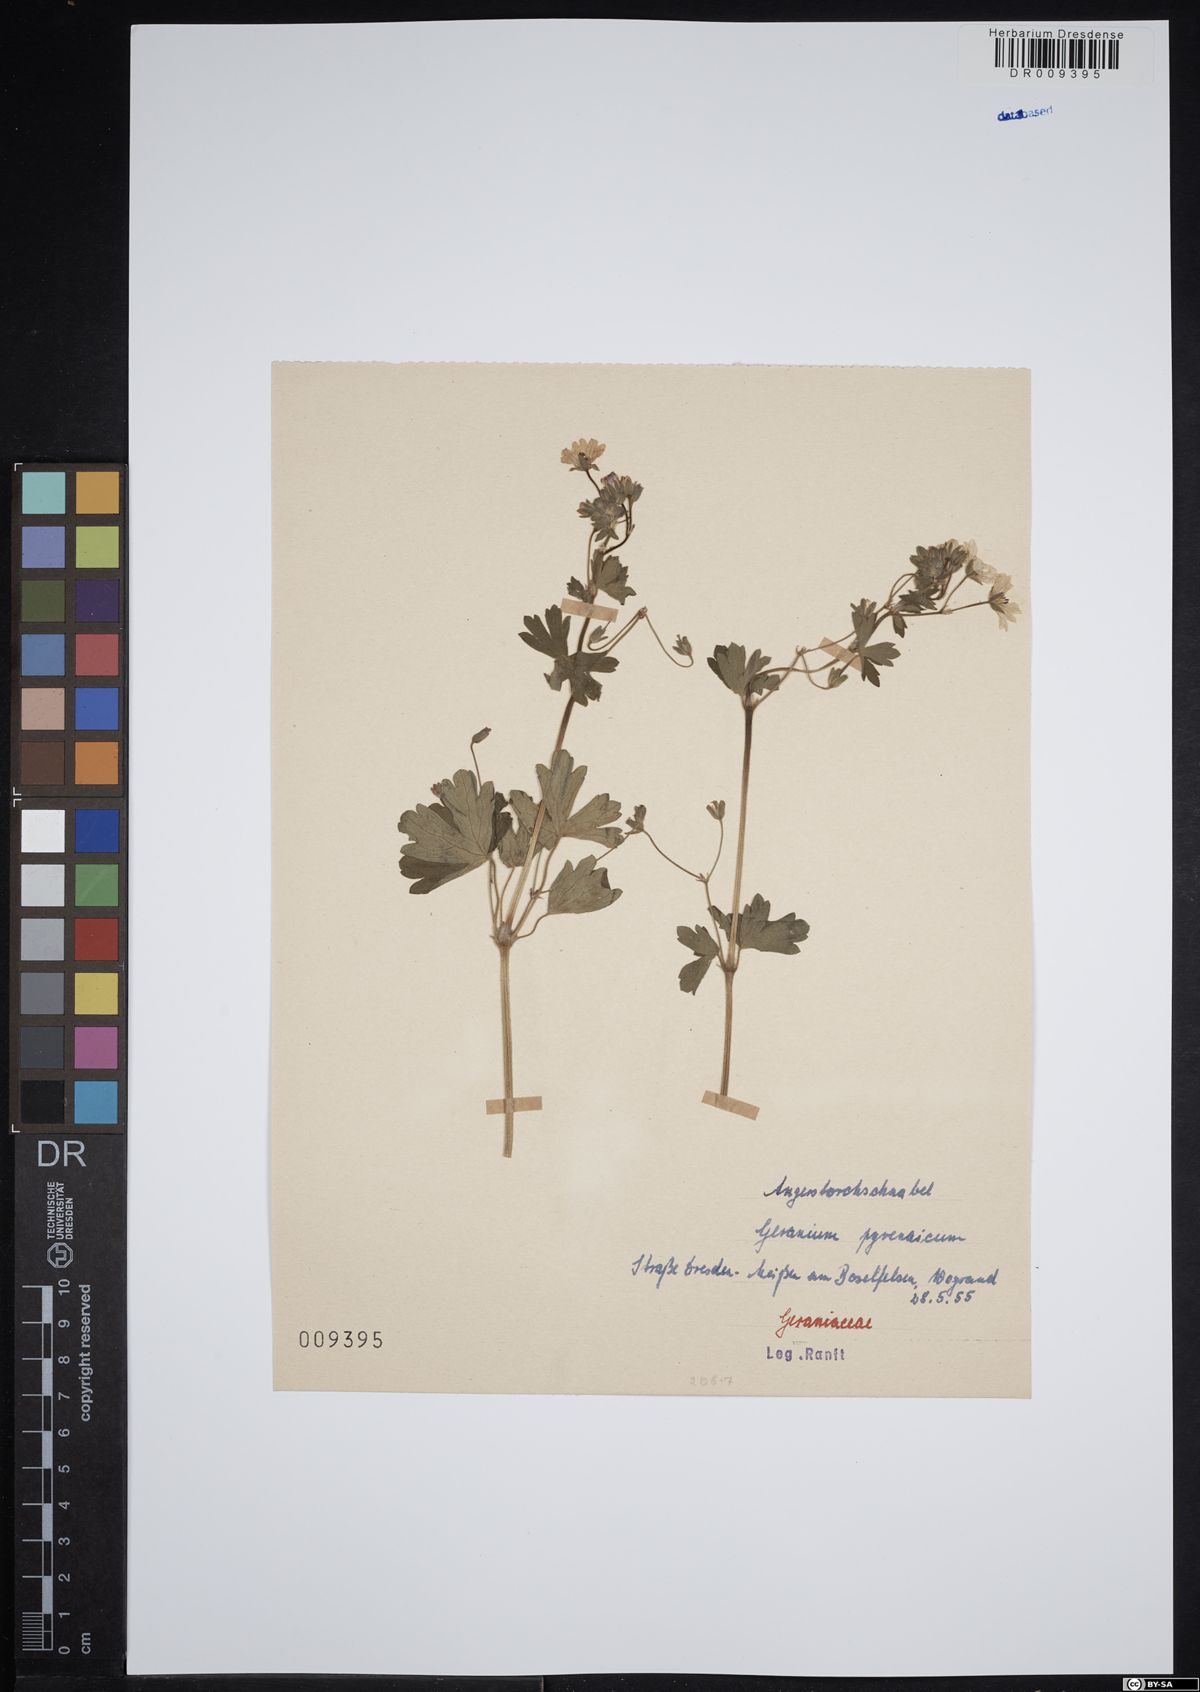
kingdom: Plantae
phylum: Tracheophyta
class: Magnoliopsida
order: Geraniales
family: Geraniaceae
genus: Geranium
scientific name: Geranium pyrenaicum
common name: Hedgerow crane's-bill
